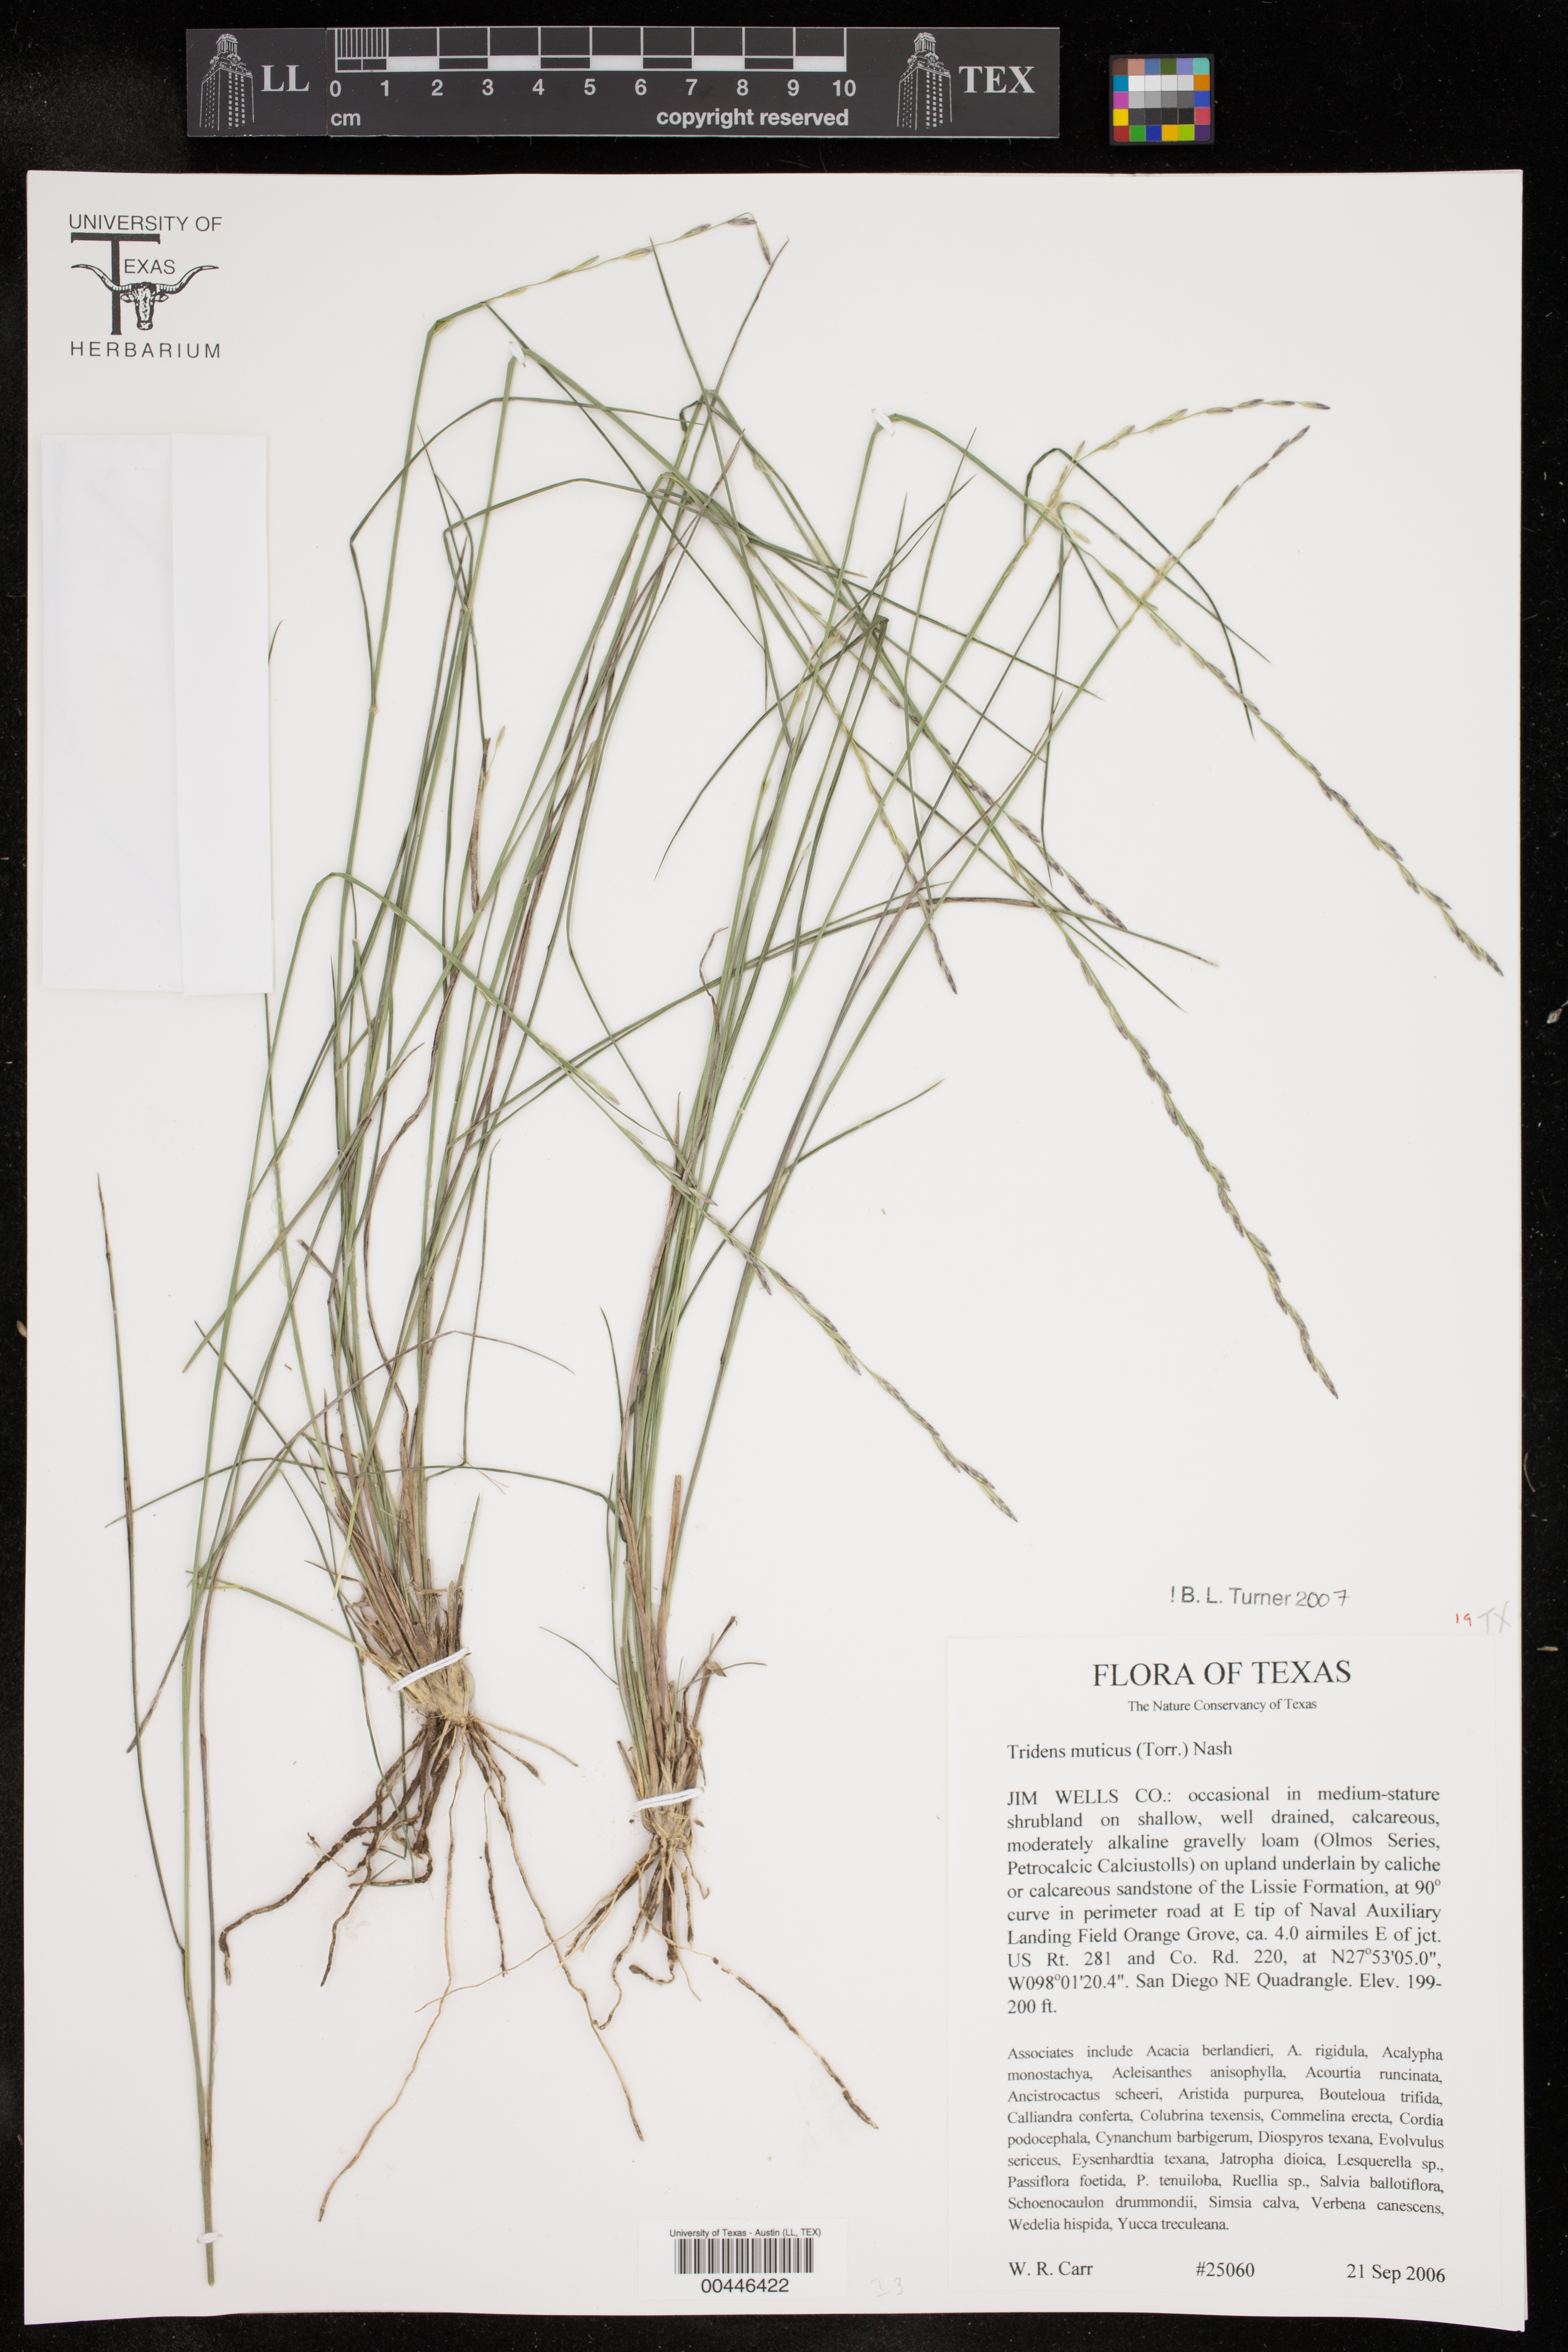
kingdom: Plantae
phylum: Tracheophyta
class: Liliopsida
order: Poales
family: Poaceae
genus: Tridentopsis
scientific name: Tridentopsis mutica
